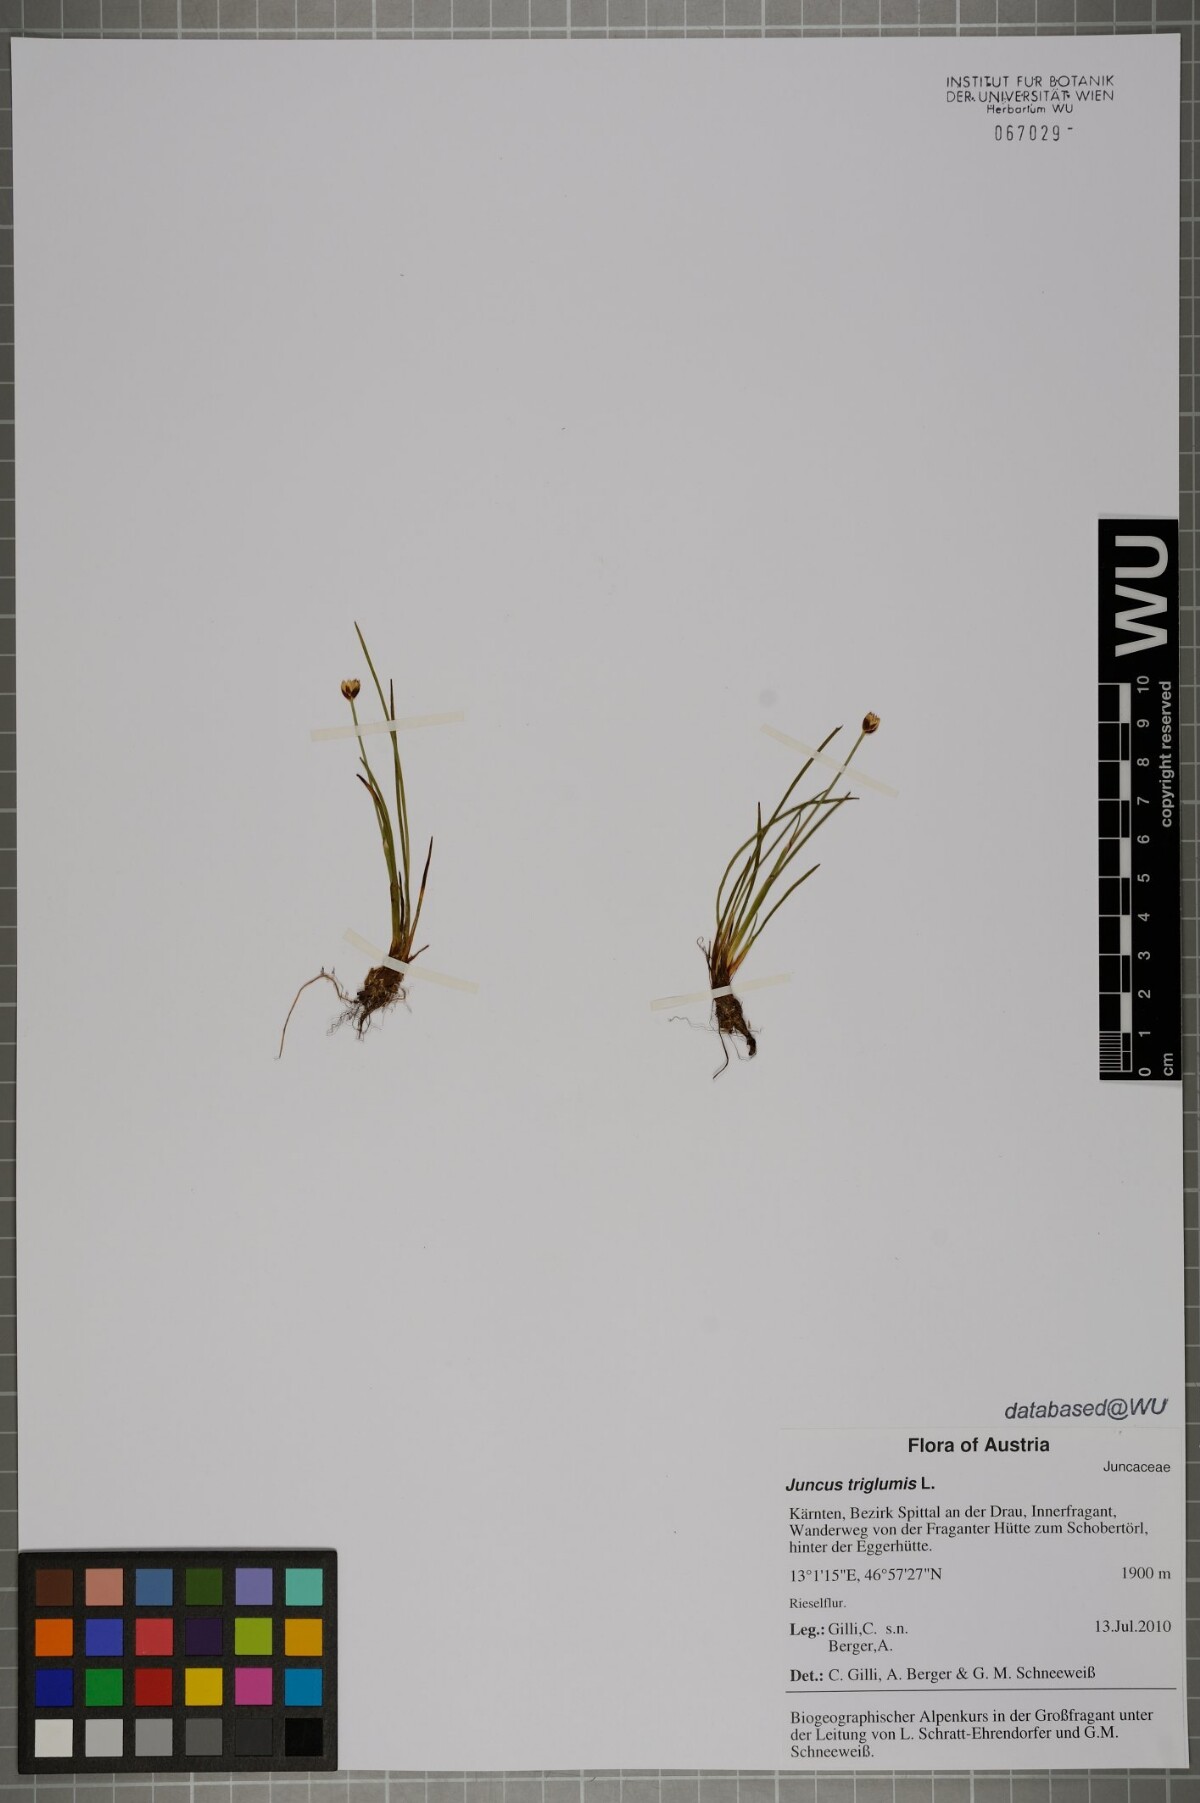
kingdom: Plantae
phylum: Tracheophyta
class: Liliopsida
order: Poales
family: Juncaceae
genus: Juncus
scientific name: Juncus triglumis
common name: Three-flowered rush
